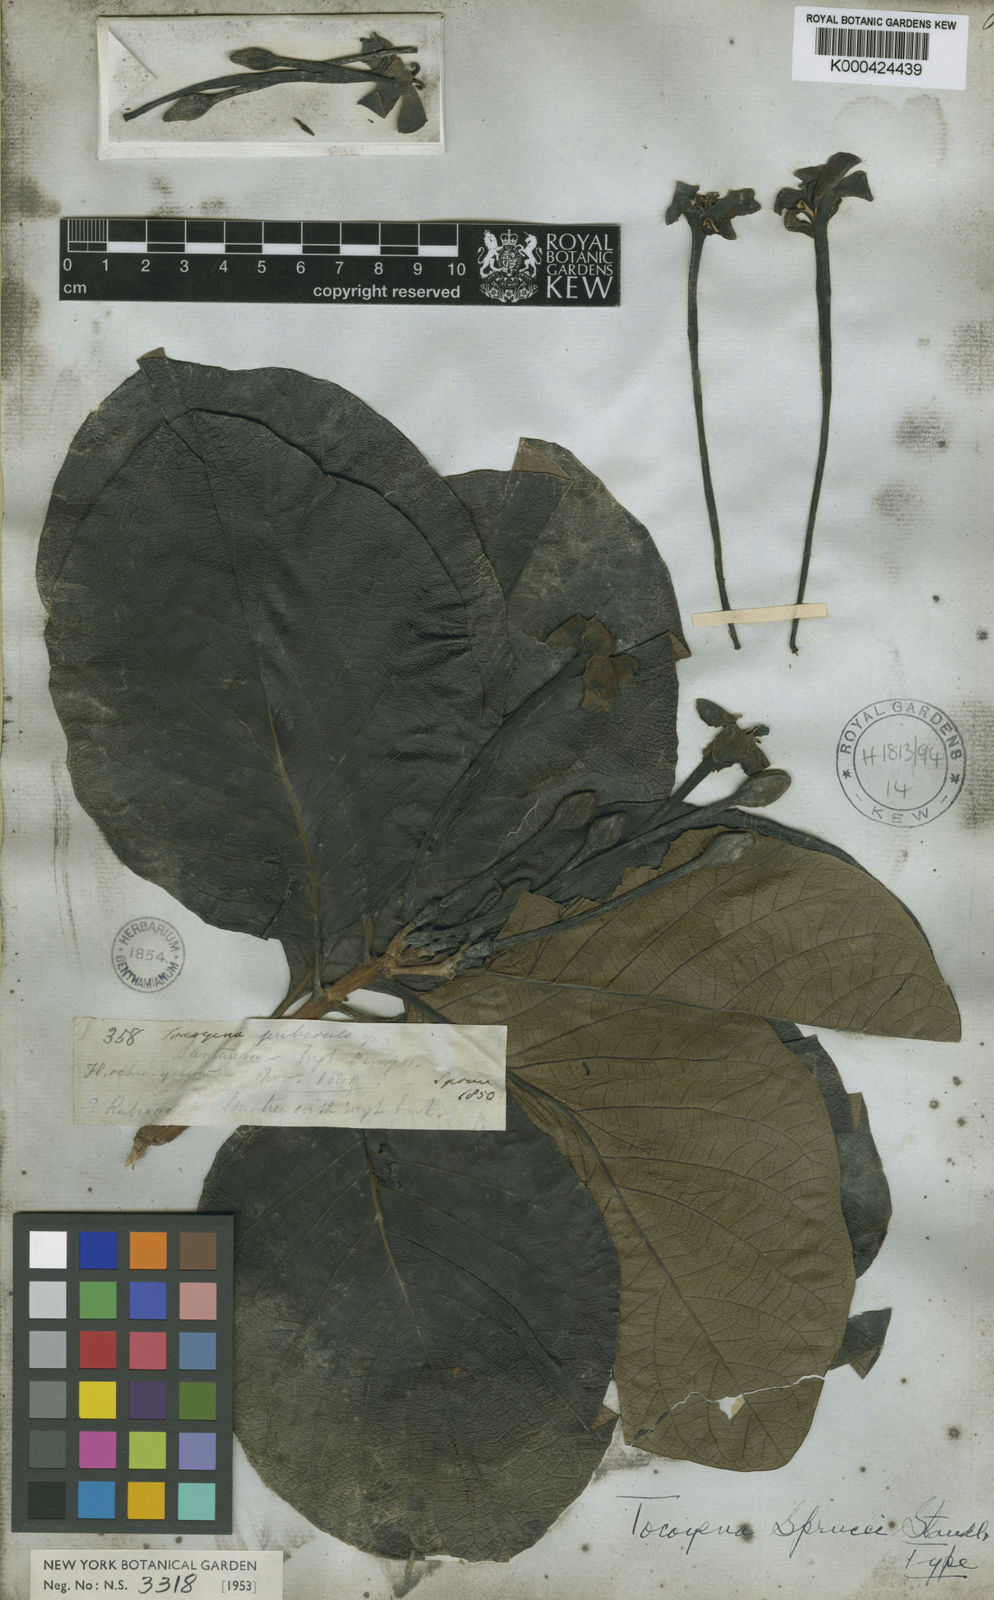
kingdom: Plantae
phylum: Tracheophyta
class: Magnoliopsida
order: Gentianales
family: Rubiaceae
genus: Tocoyena
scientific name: Tocoyena sprucei
